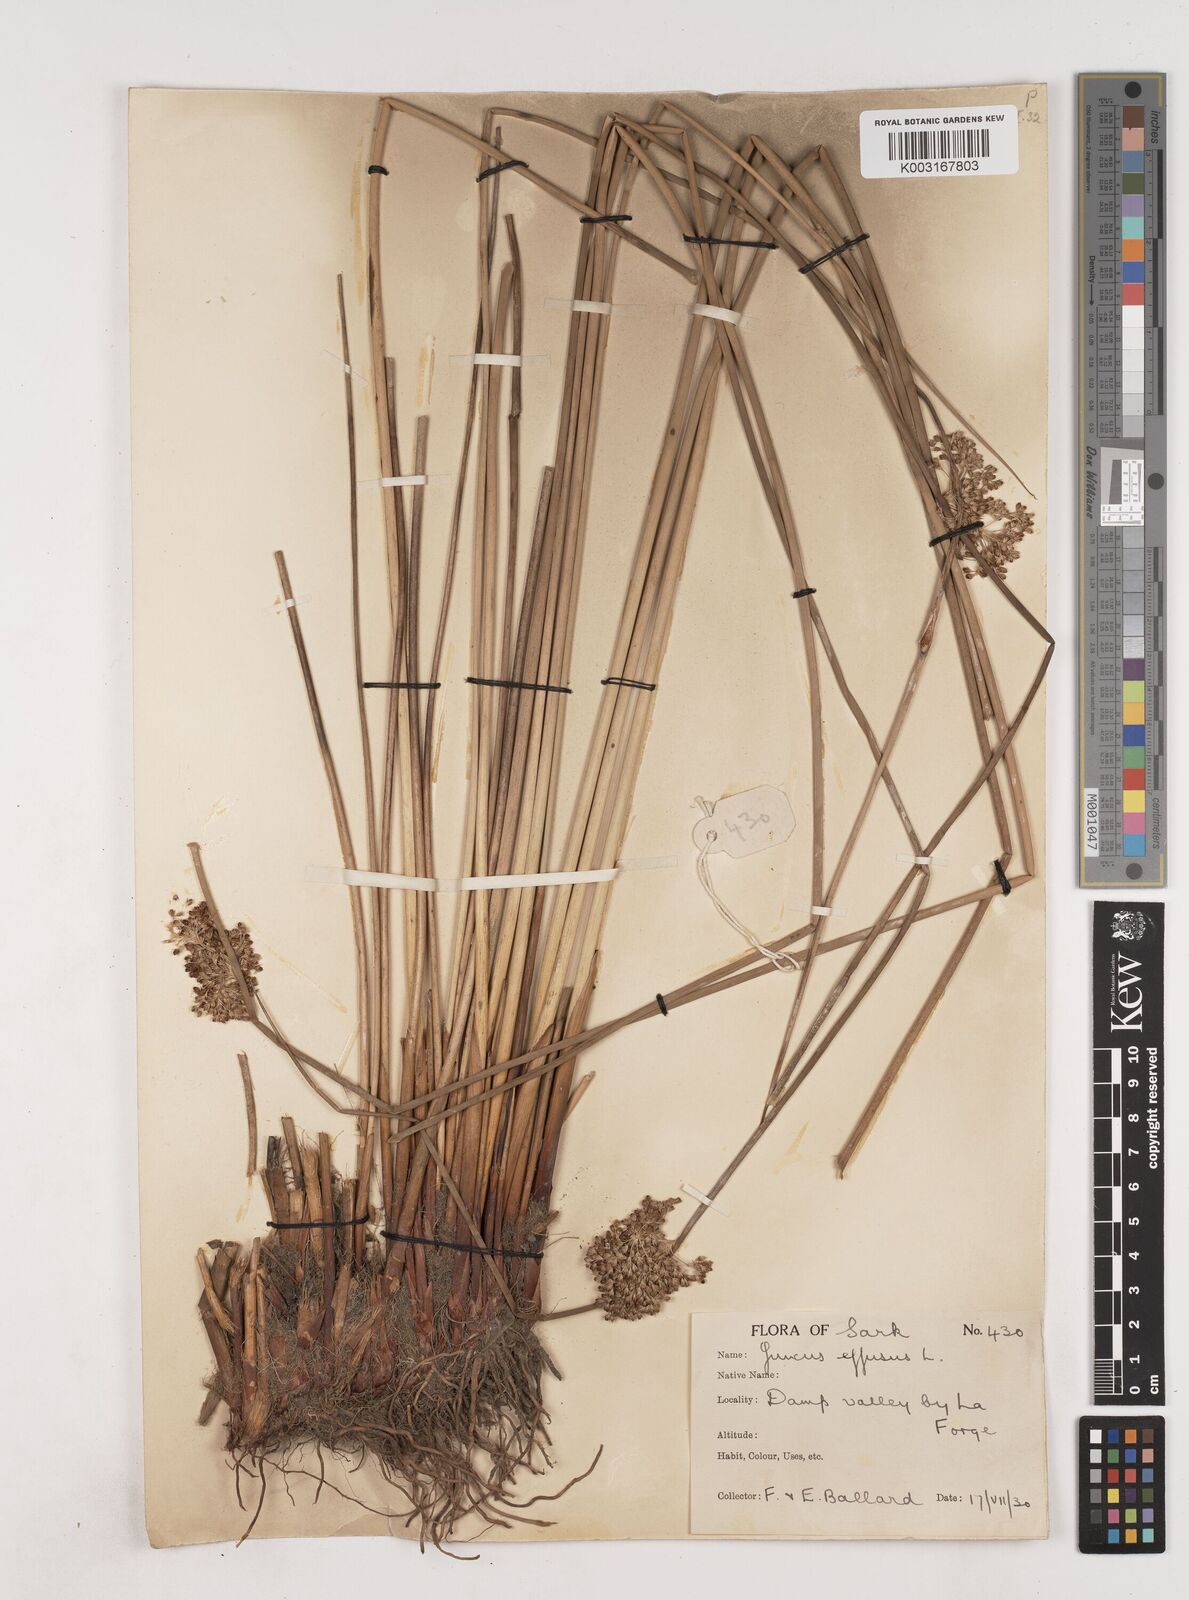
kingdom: Plantae
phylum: Tracheophyta
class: Liliopsida
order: Poales
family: Juncaceae
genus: Juncus
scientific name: Juncus effusus
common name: Soft rush
